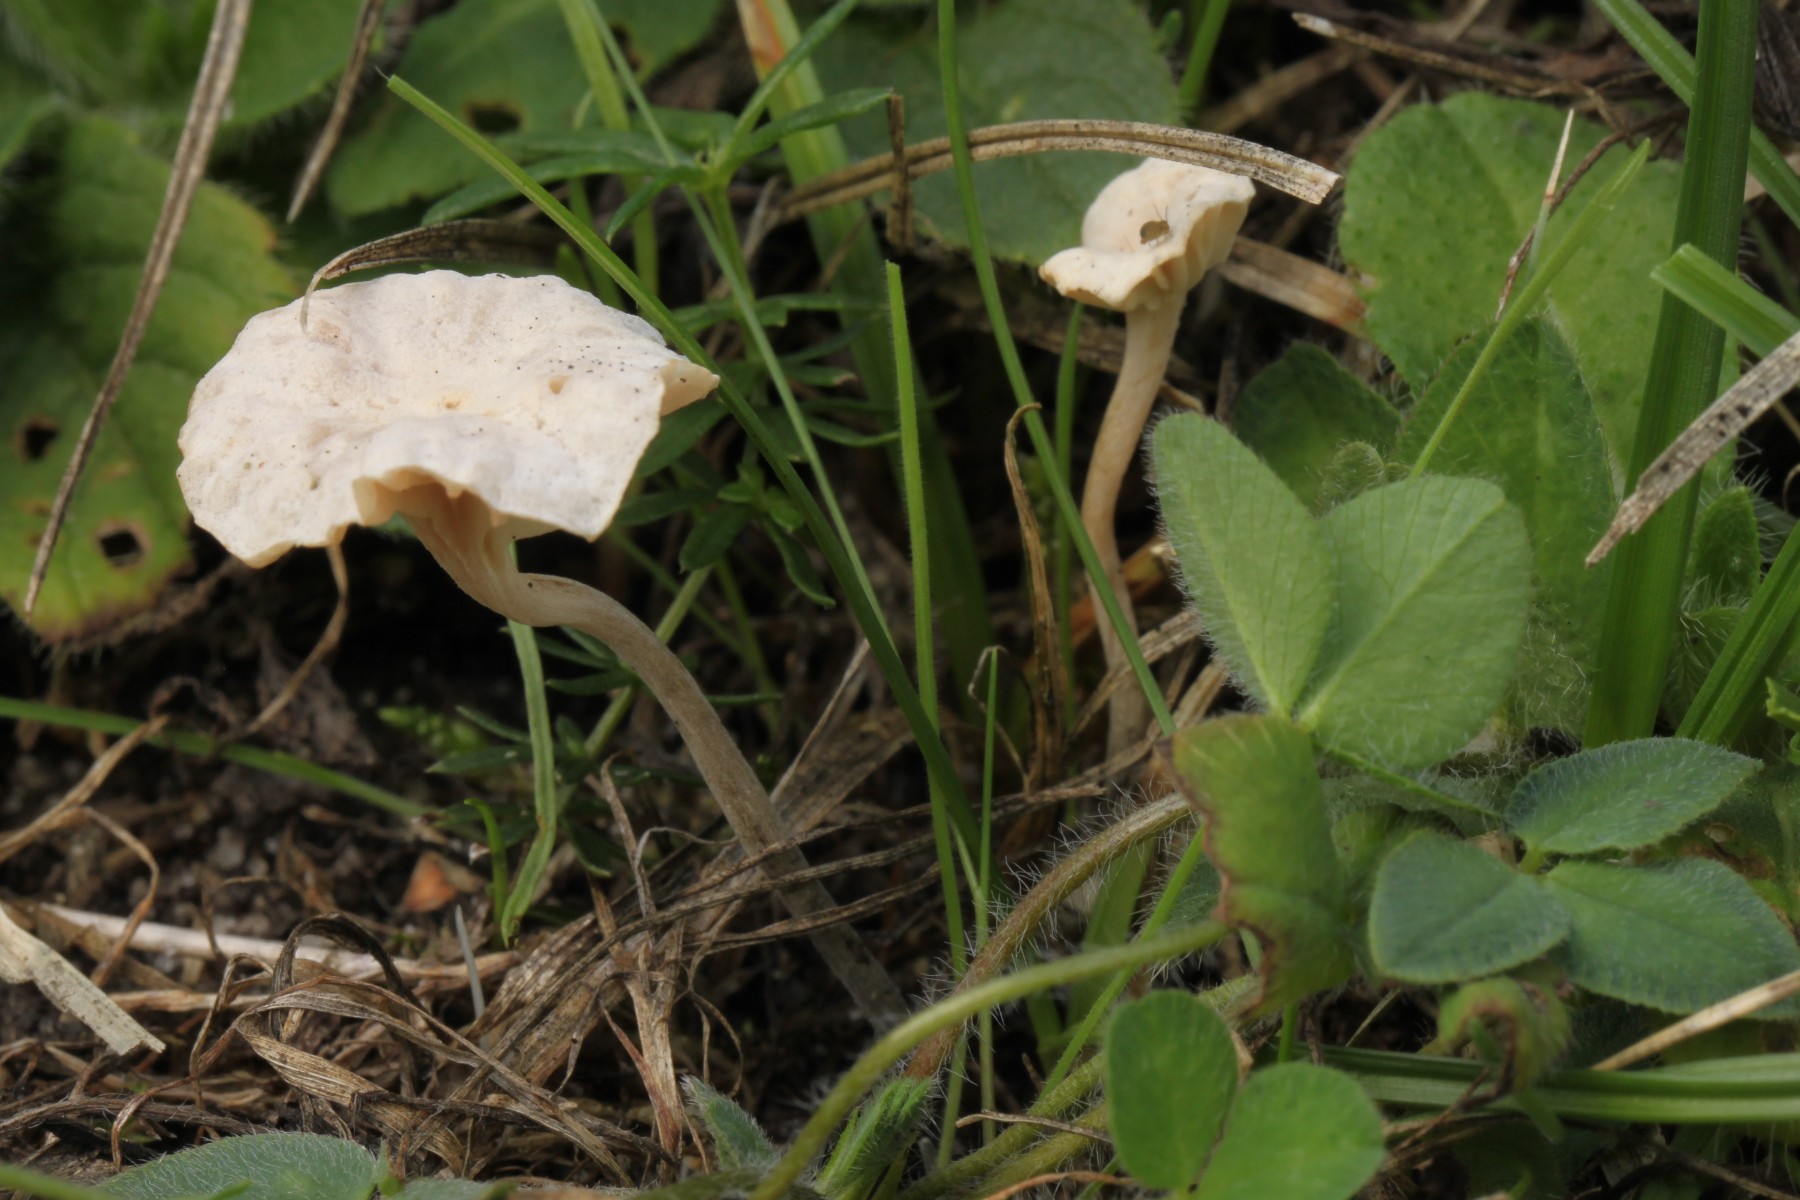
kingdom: Fungi
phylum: Basidiomycota
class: Agaricomycetes
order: Agaricales
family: Omphalotaceae
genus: Marasmiellus
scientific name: Marasmiellus tricolor
